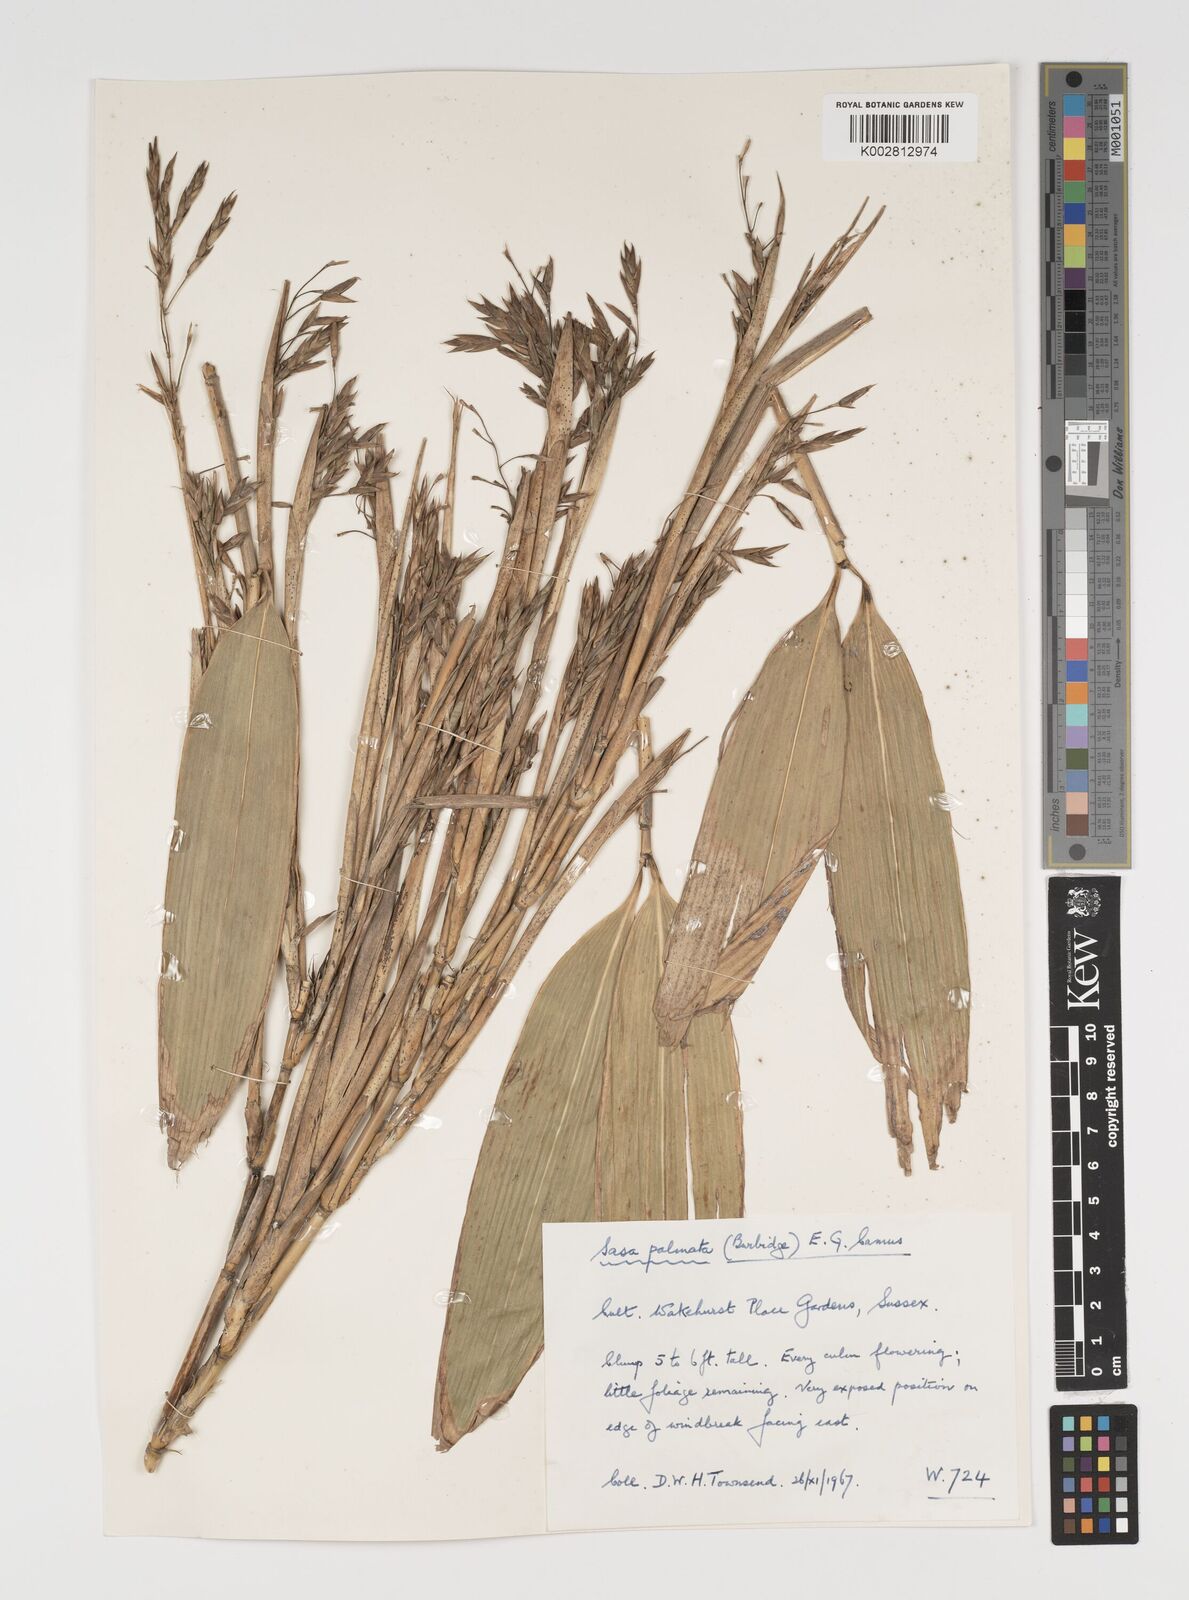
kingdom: Plantae
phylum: Tracheophyta
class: Liliopsida
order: Poales
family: Poaceae
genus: Sasa
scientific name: Sasa palmata
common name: Broad-leaved bamboo
